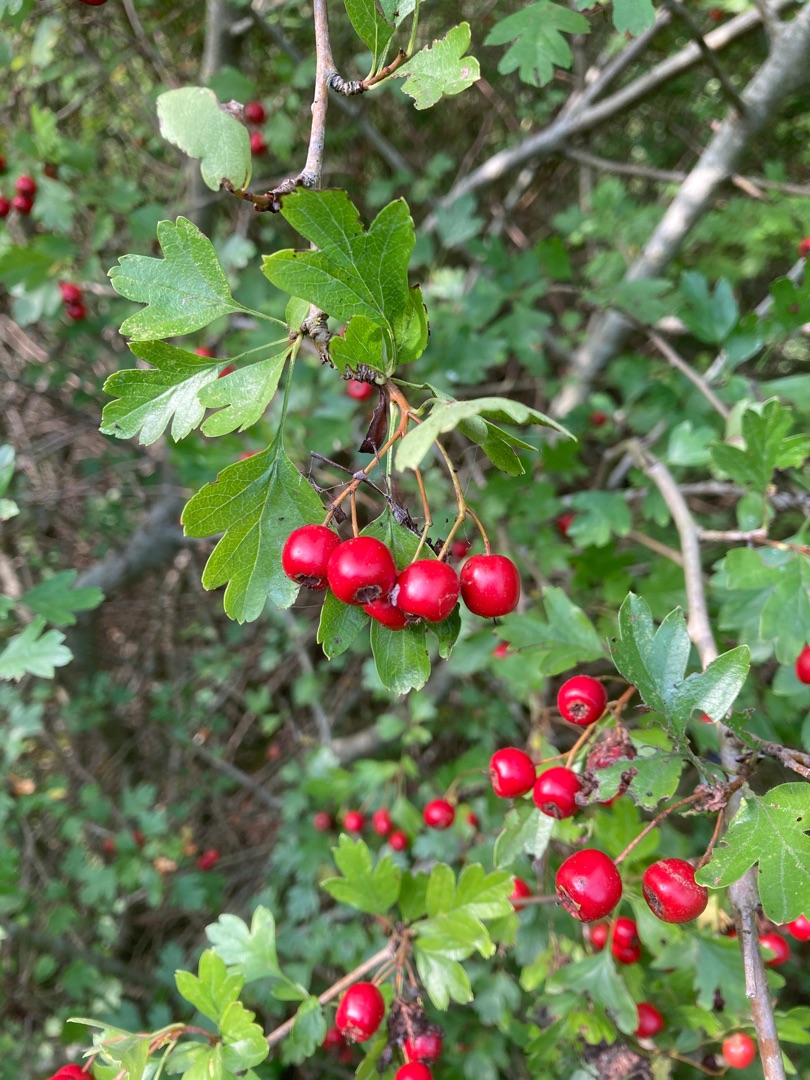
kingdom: Plantae
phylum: Tracheophyta
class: Magnoliopsida
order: Rosales
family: Rosaceae
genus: Crataegus
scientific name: Crataegus monogyna
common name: Engriflet hvidtjørn
